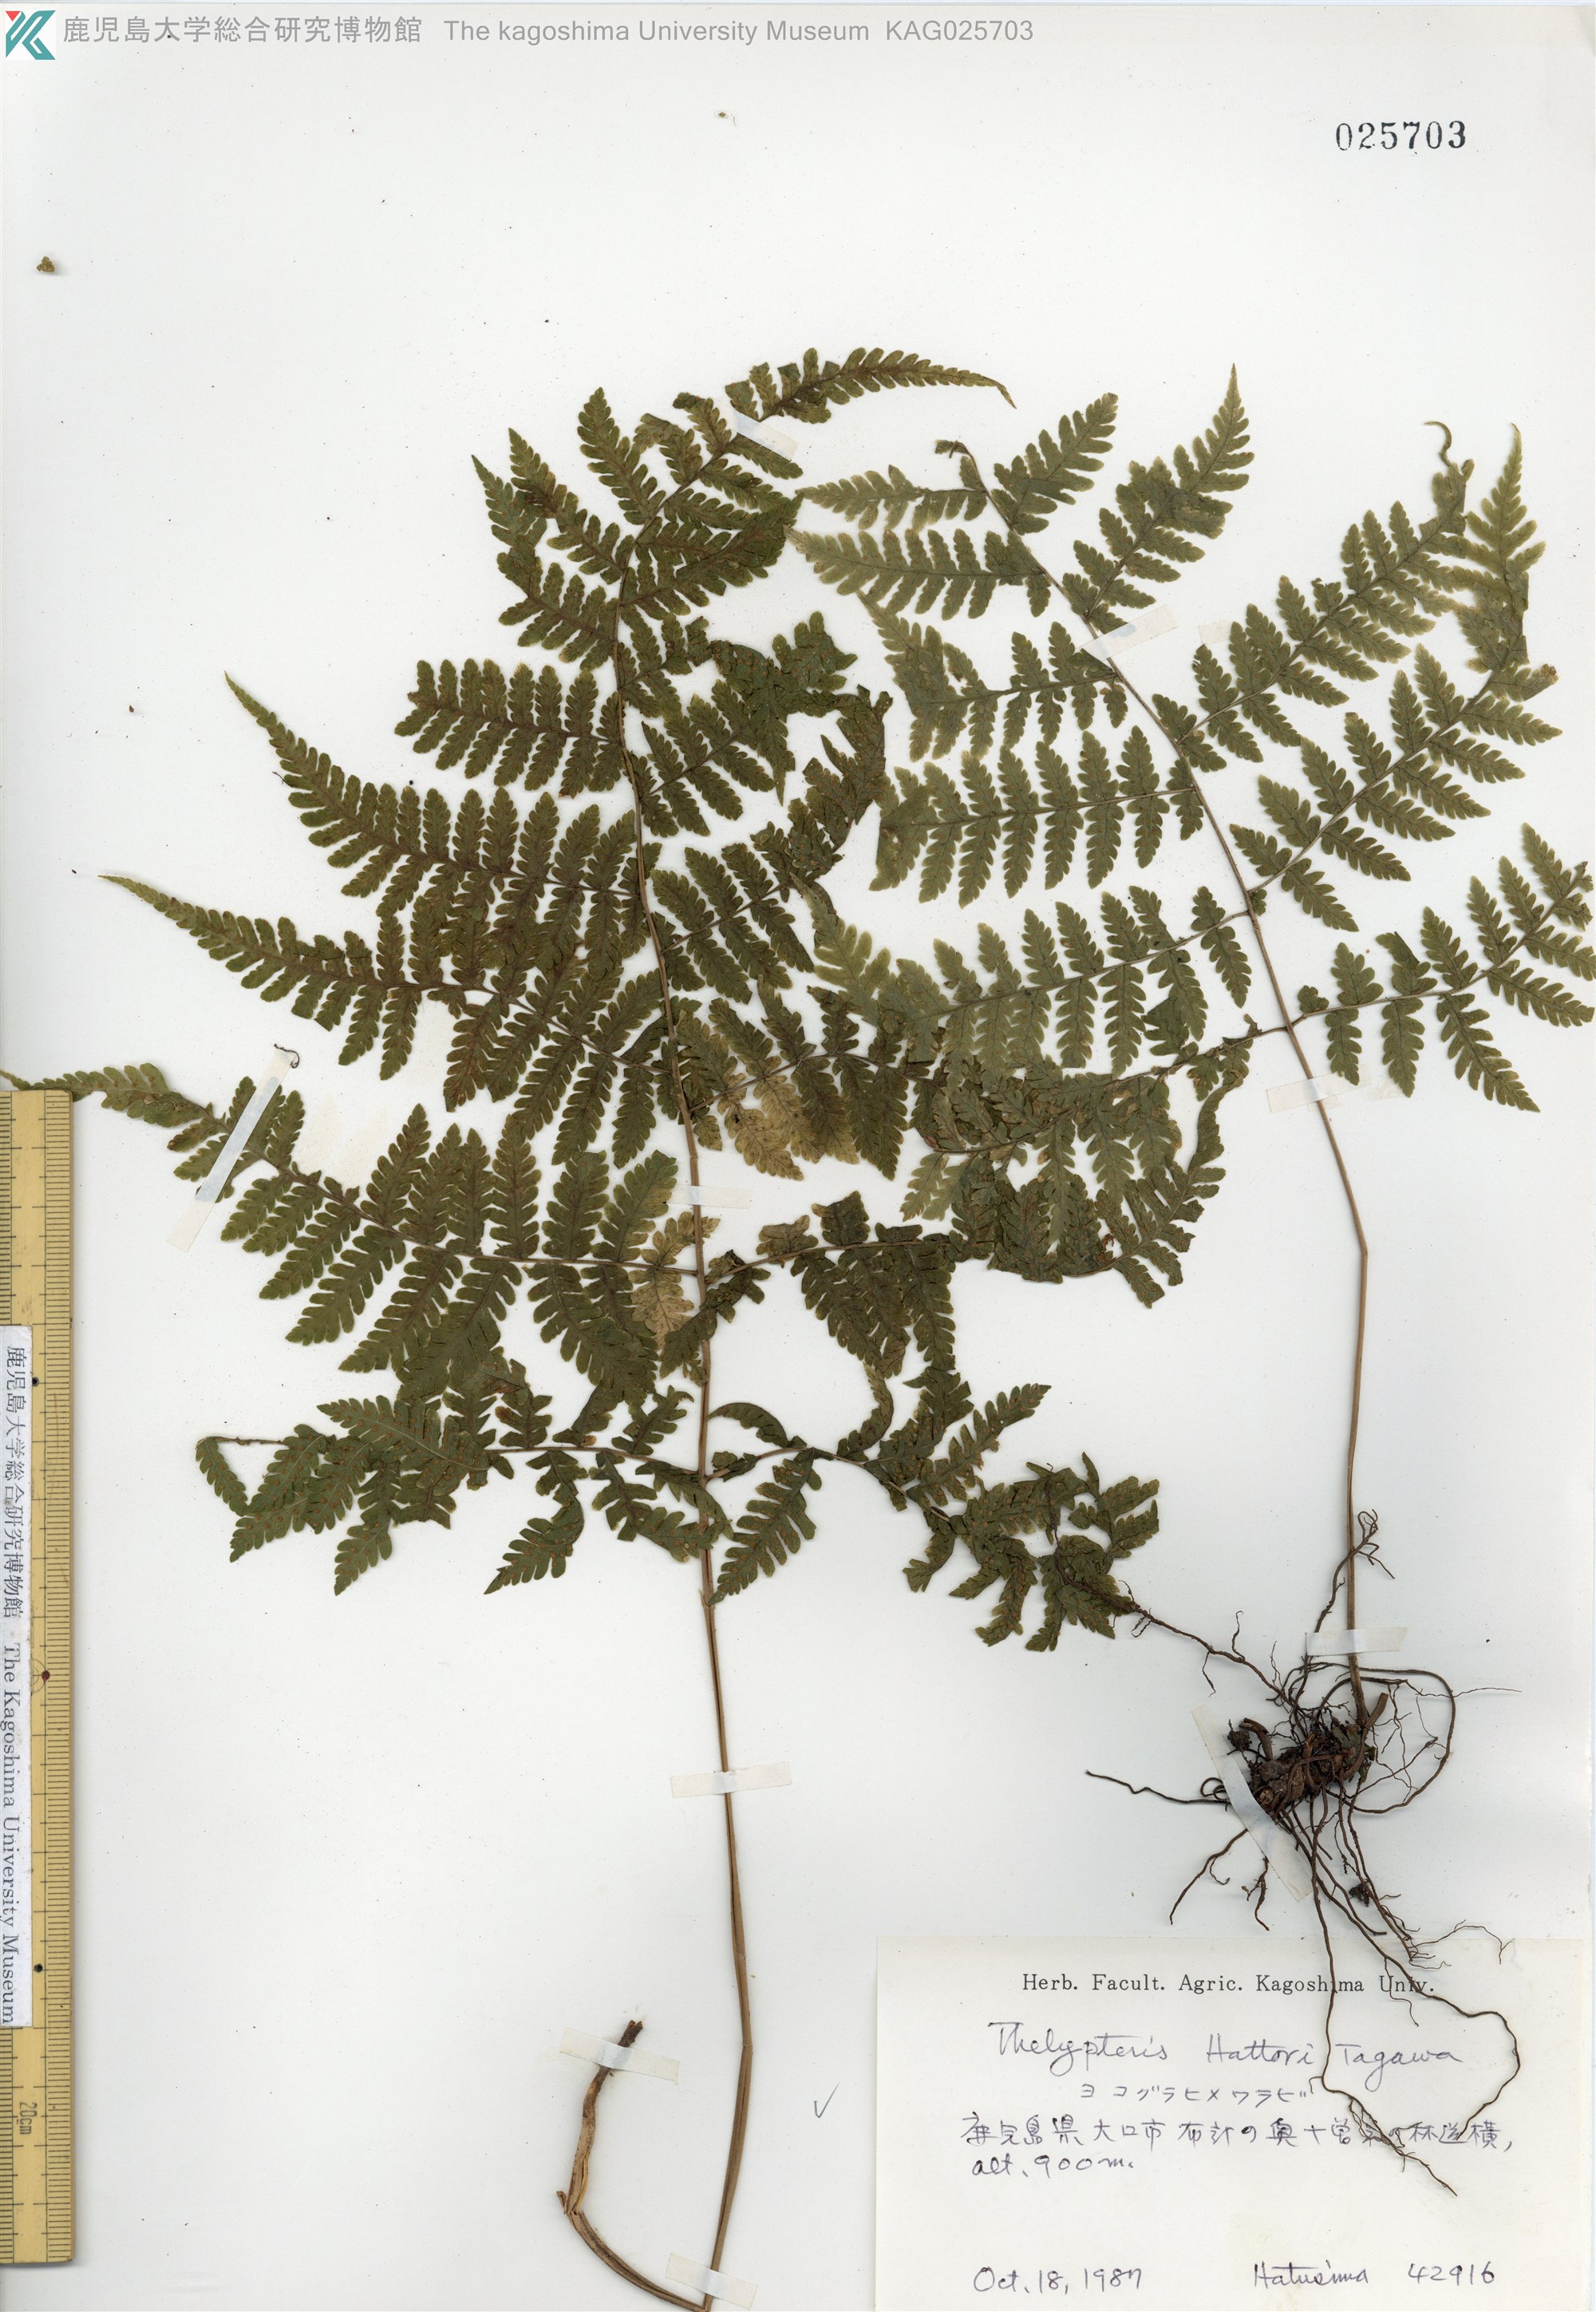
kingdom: Plantae
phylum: Tracheophyta
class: Polypodiopsida
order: Polypodiales
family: Thelypteridaceae
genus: Metathelypteris
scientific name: Metathelypteris hattori
